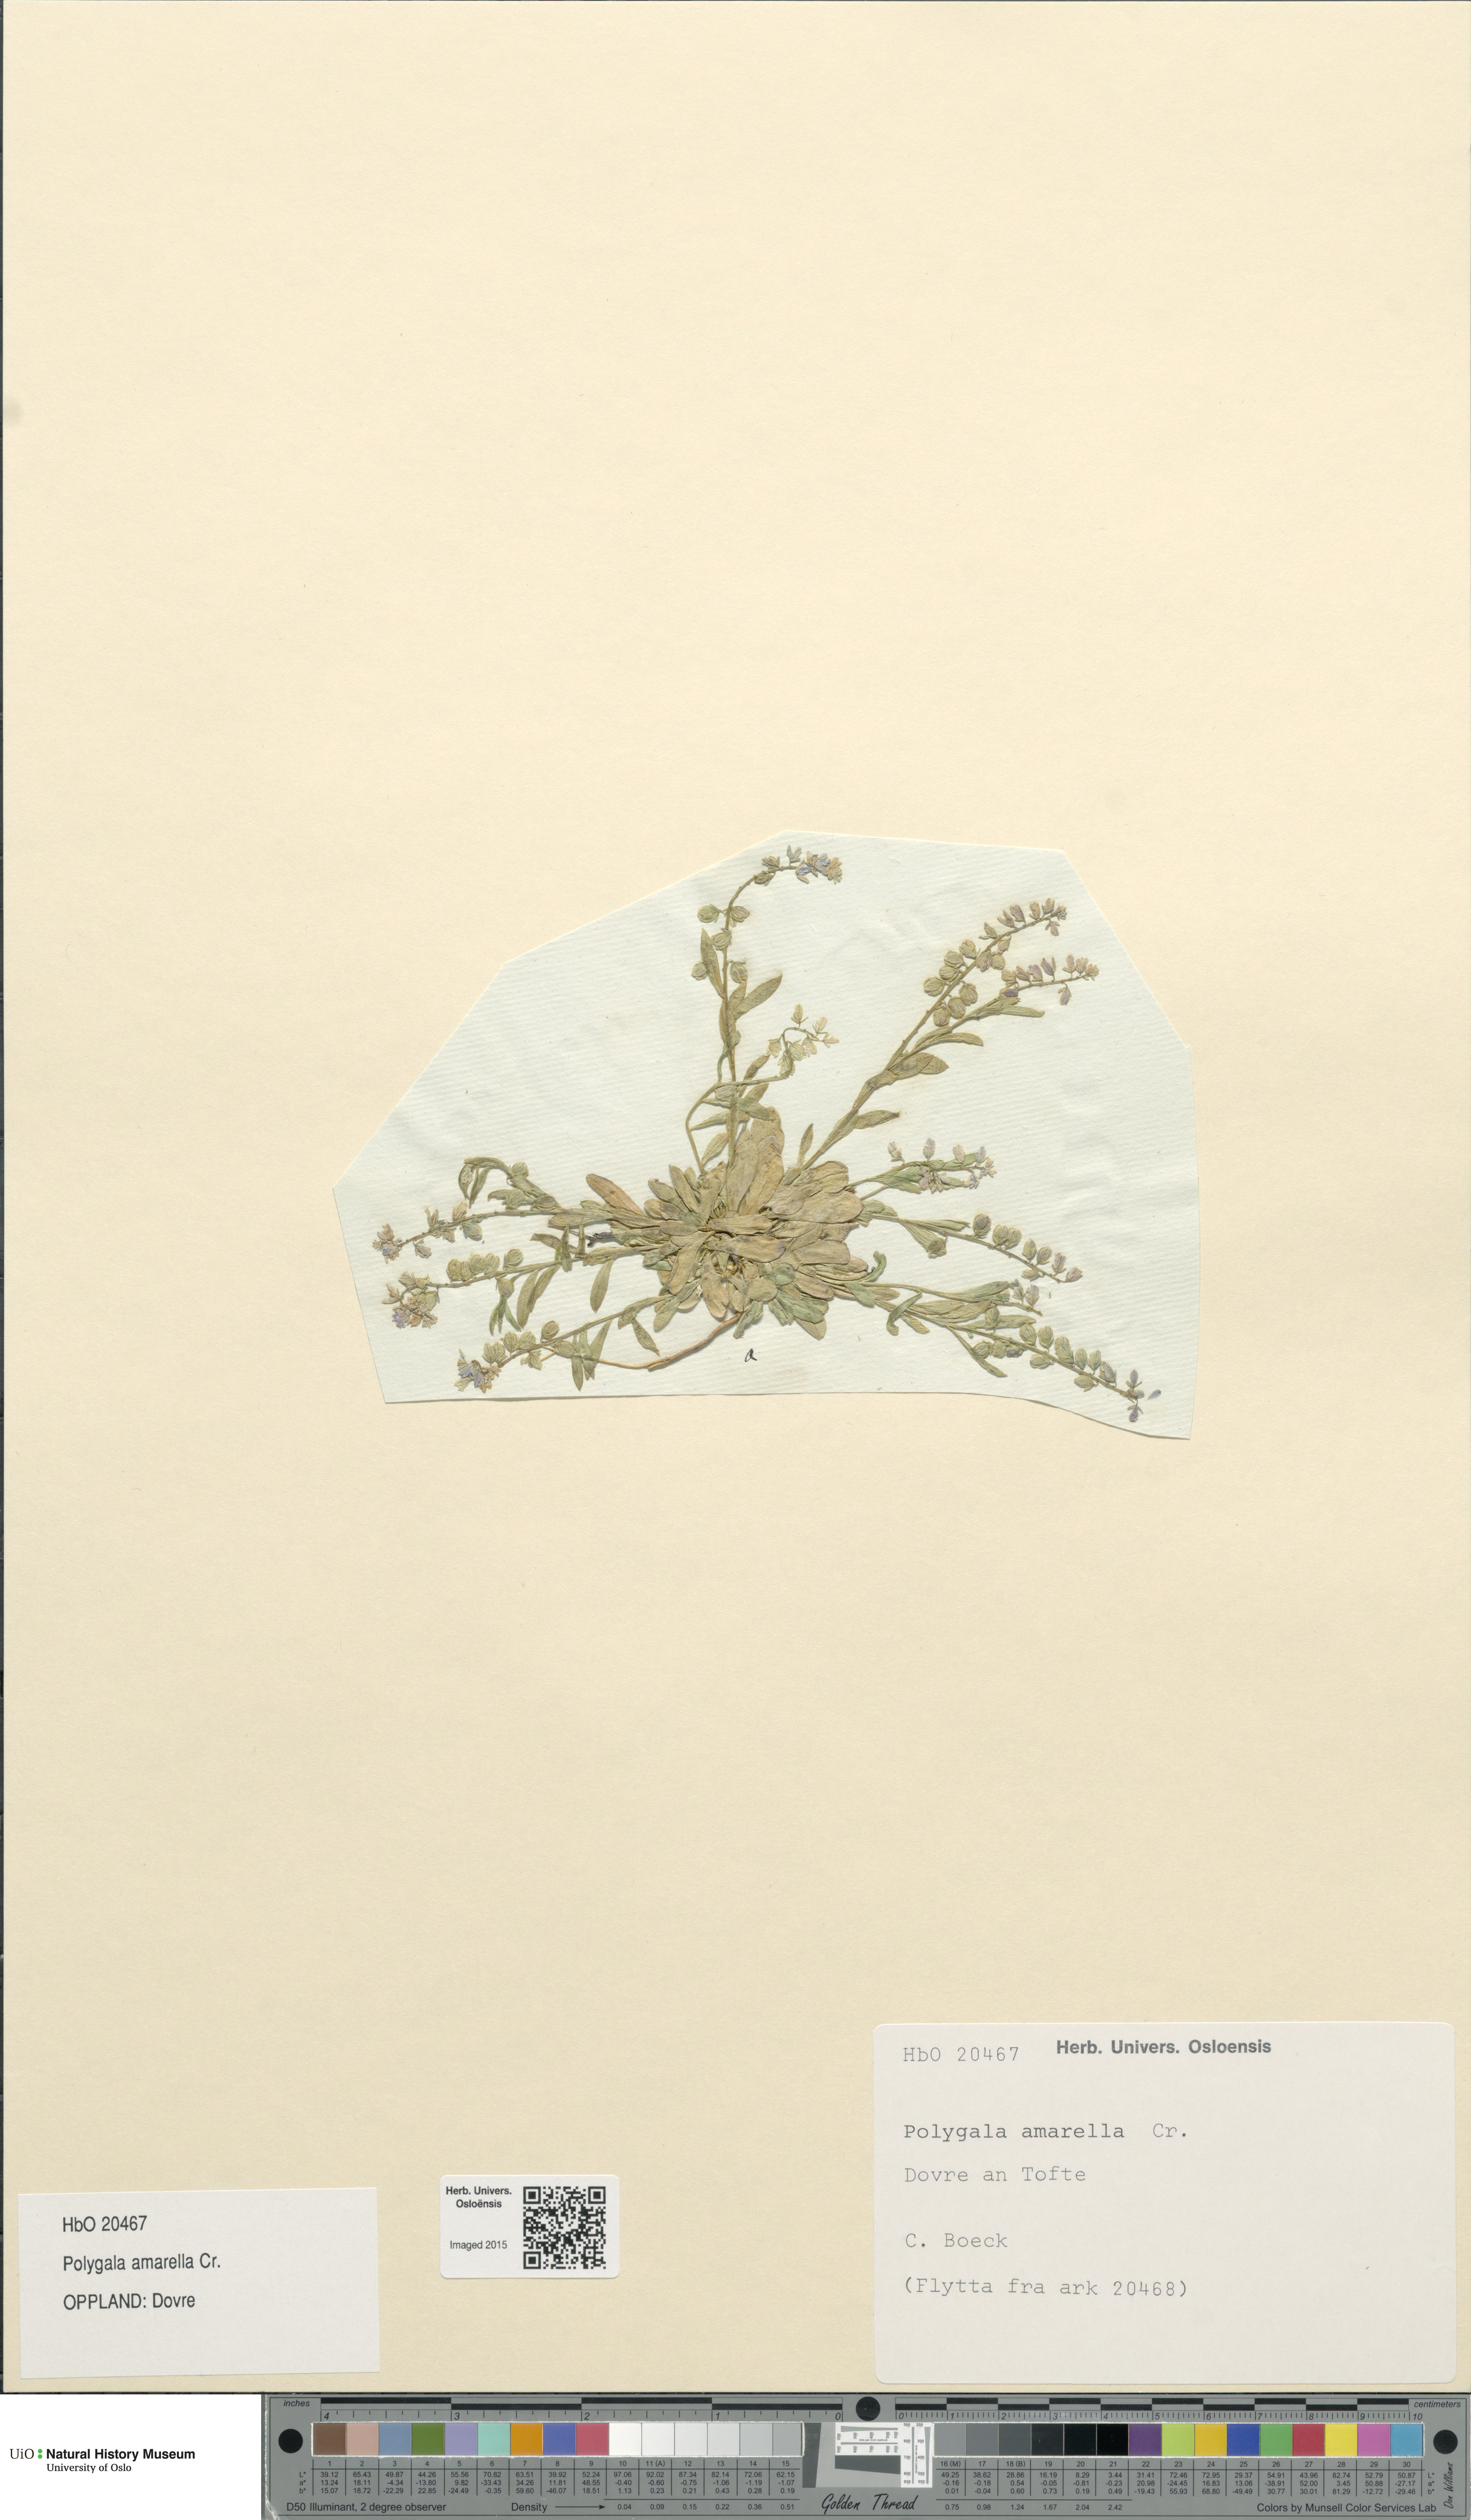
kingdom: Plantae
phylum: Tracheophyta
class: Magnoliopsida
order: Fabales
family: Polygalaceae
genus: Polygala
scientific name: Polygala amarella
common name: Dwarf milkwort
